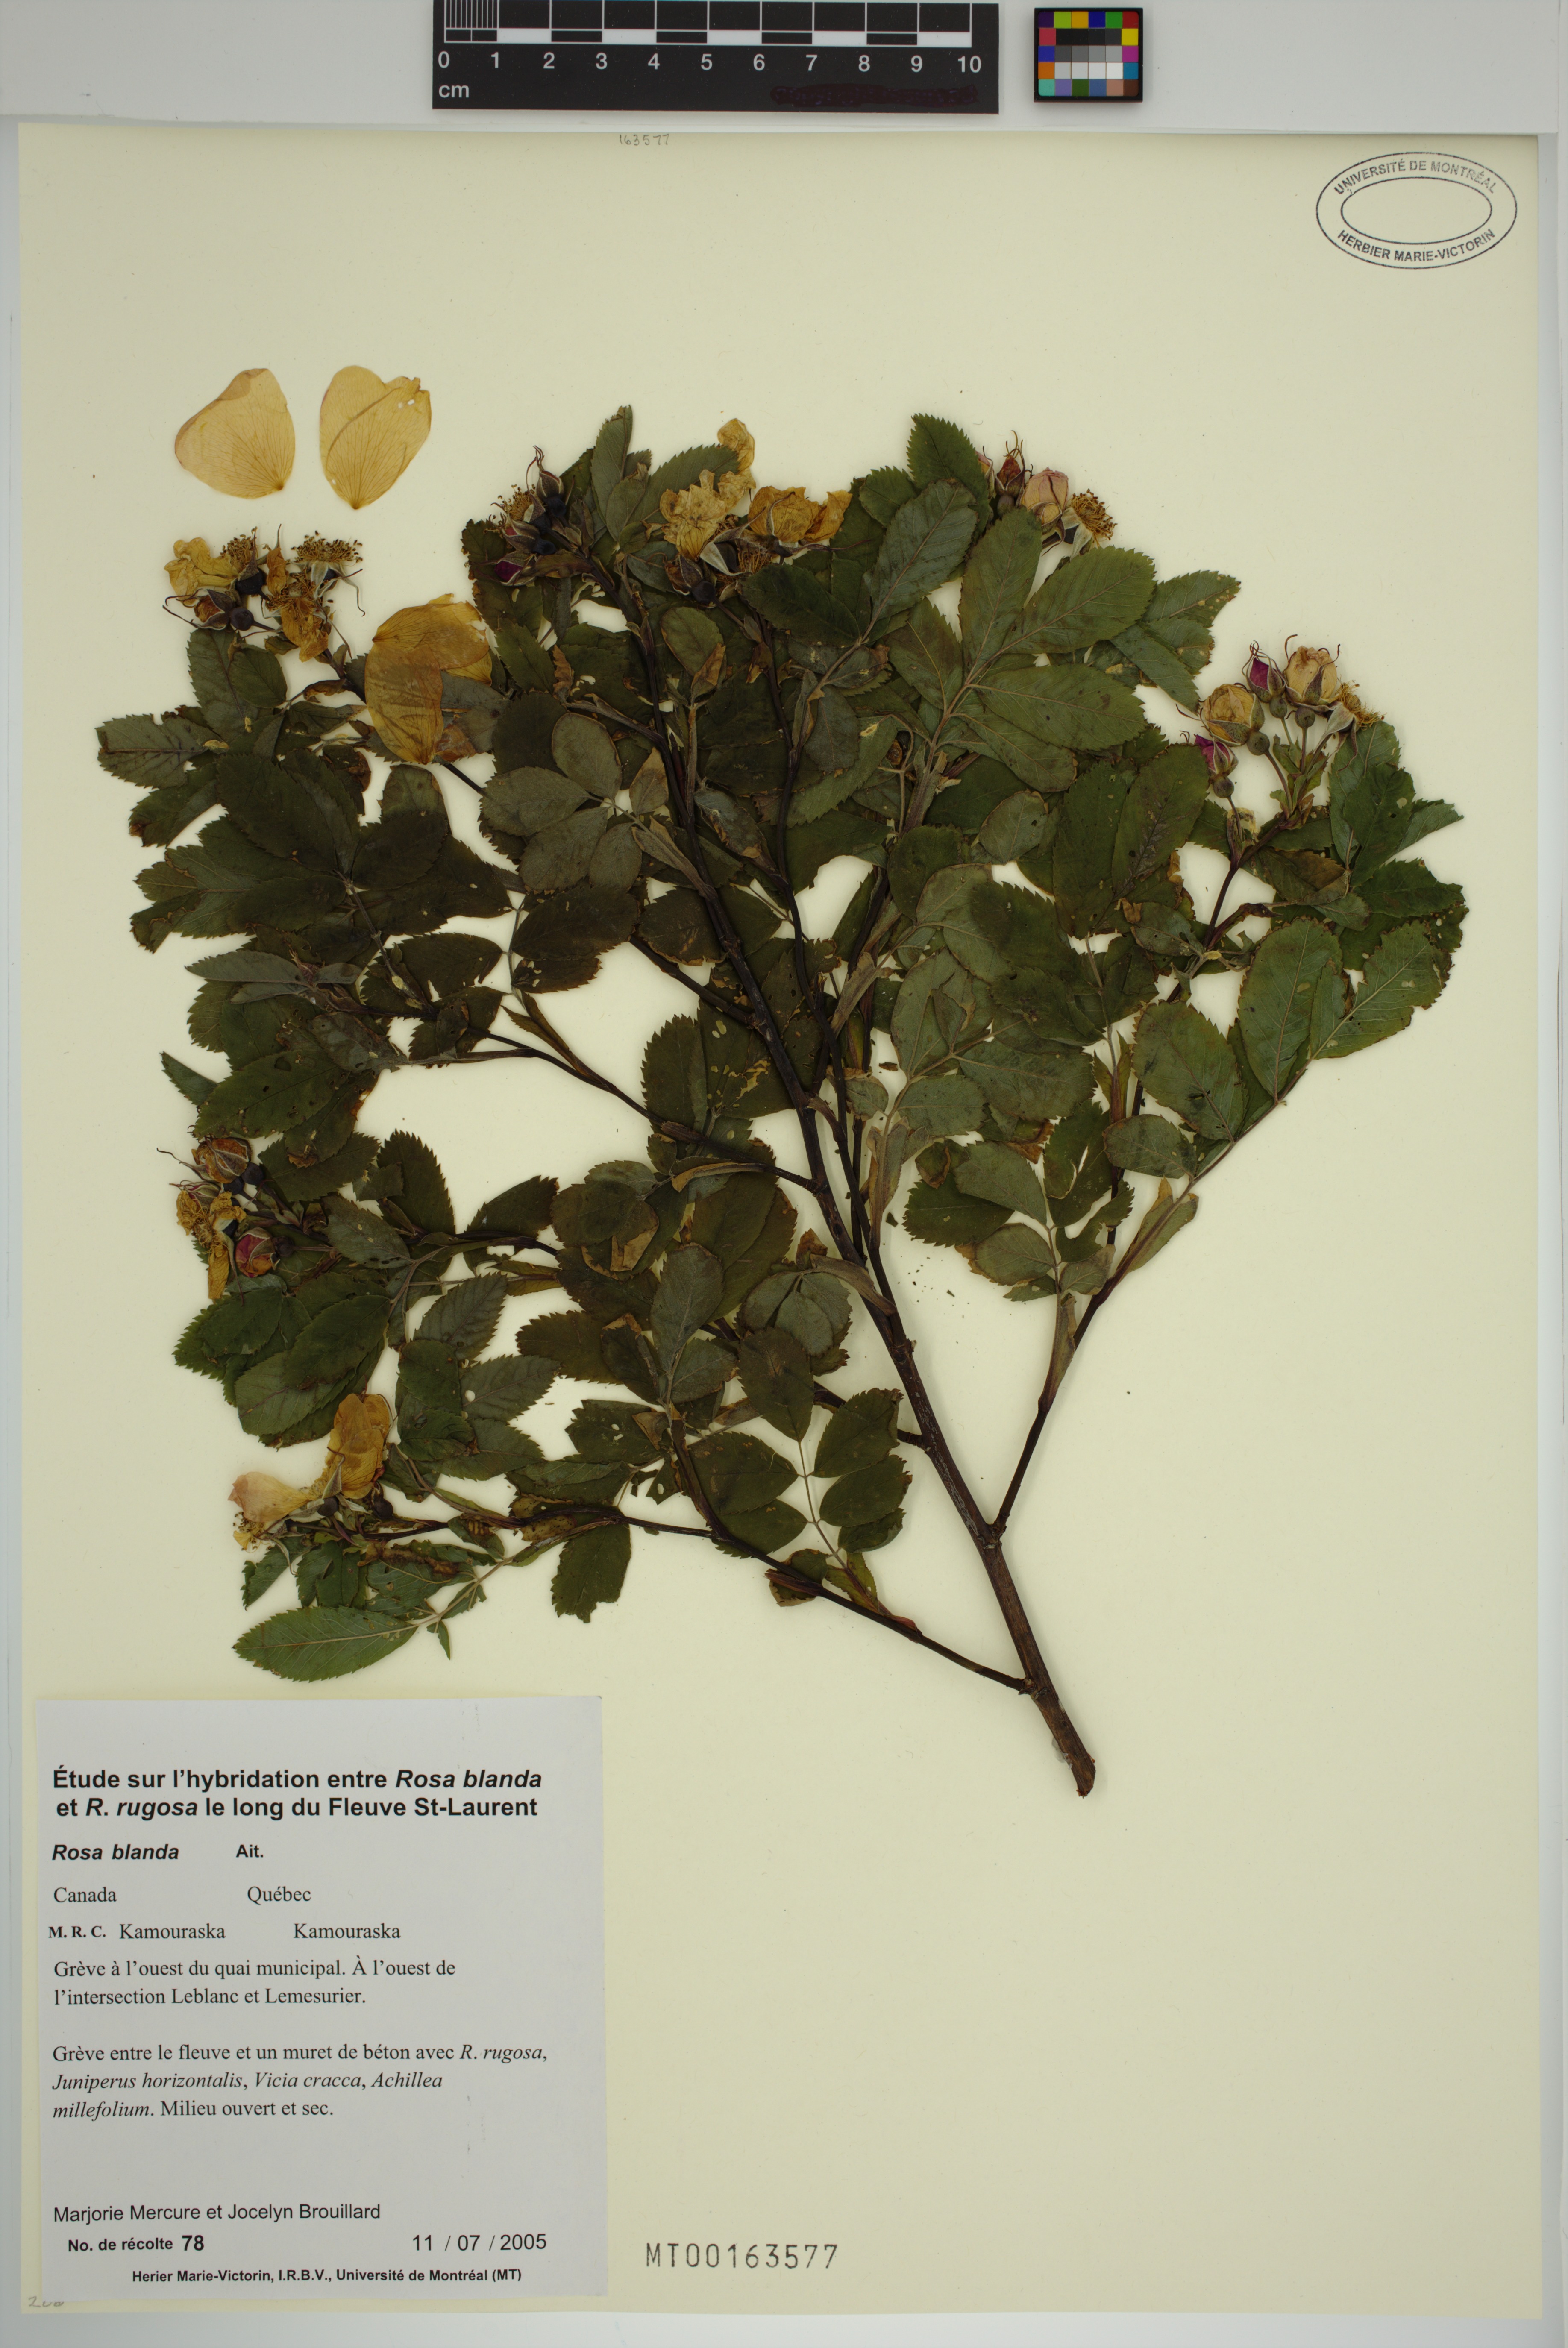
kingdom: Plantae
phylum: Tracheophyta
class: Magnoliopsida
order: Rosales
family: Rosaceae
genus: Rosa
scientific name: Rosa blanda
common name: Smooth rose
